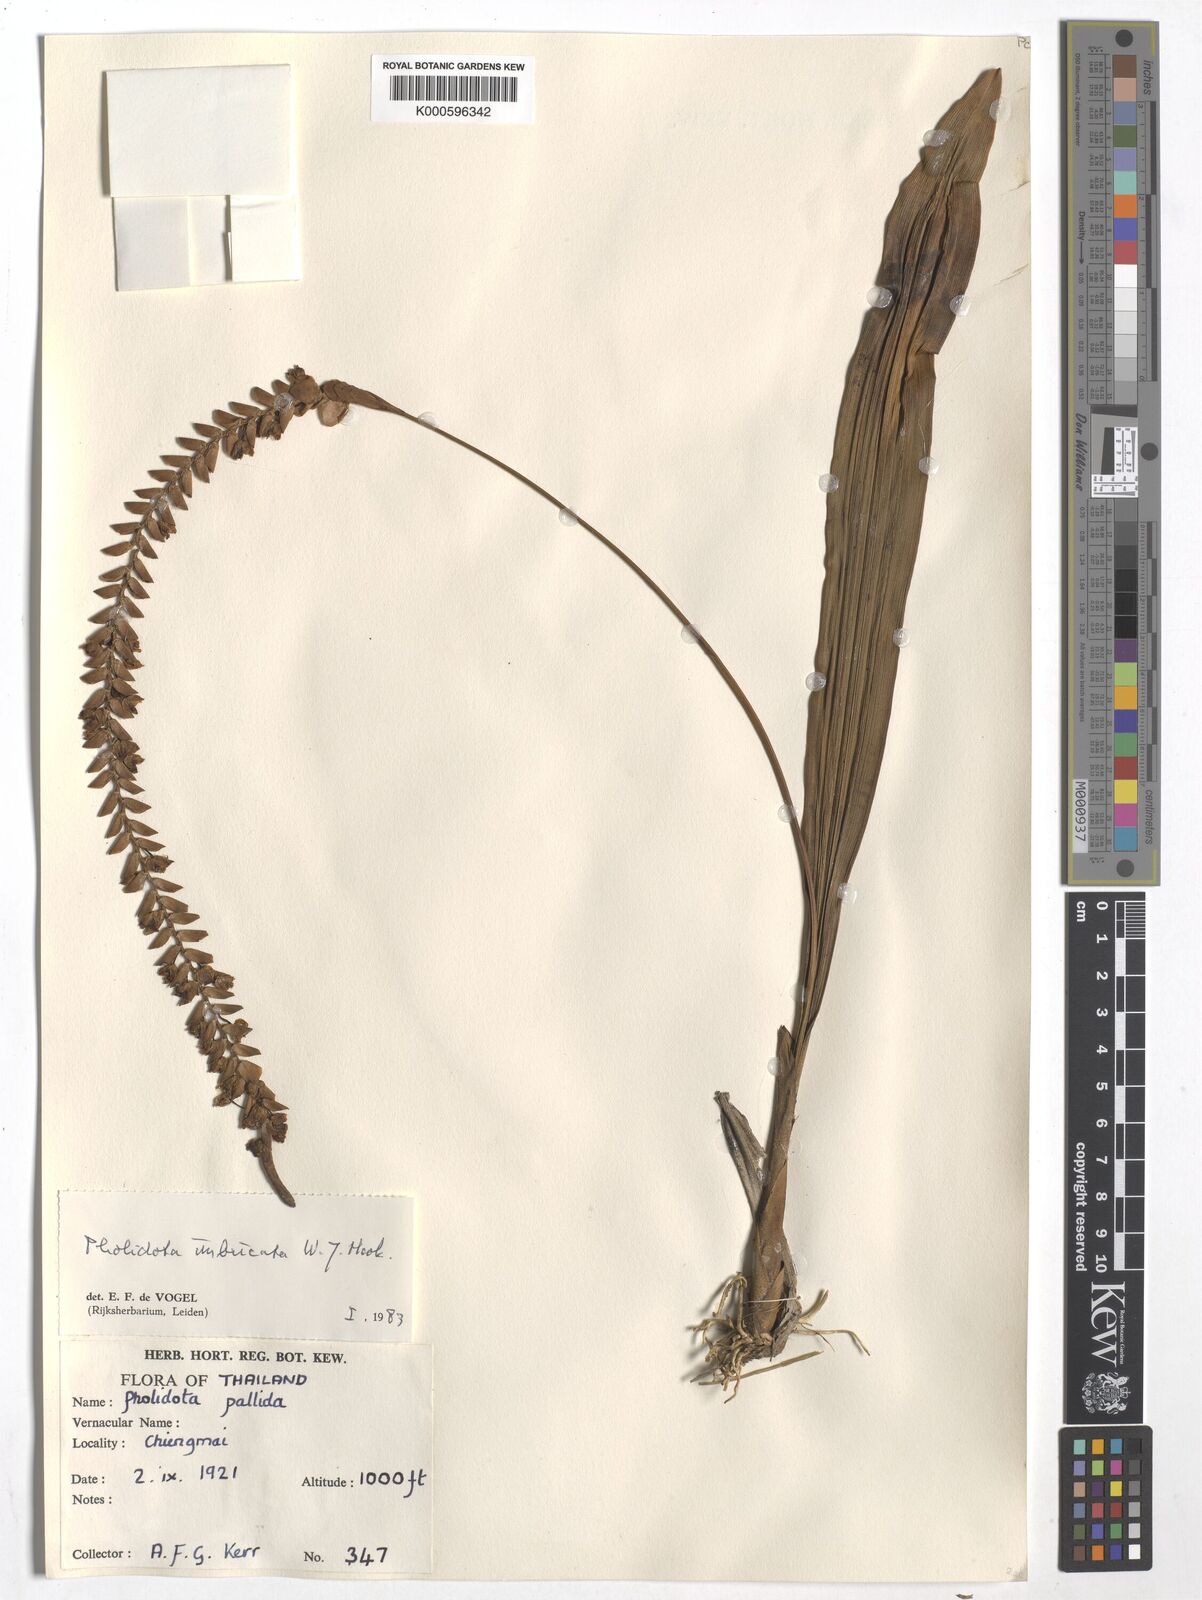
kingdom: Plantae
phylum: Tracheophyta
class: Liliopsida
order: Asparagales
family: Orchidaceae
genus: Coelogyne
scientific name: Coelogyne imbricata
